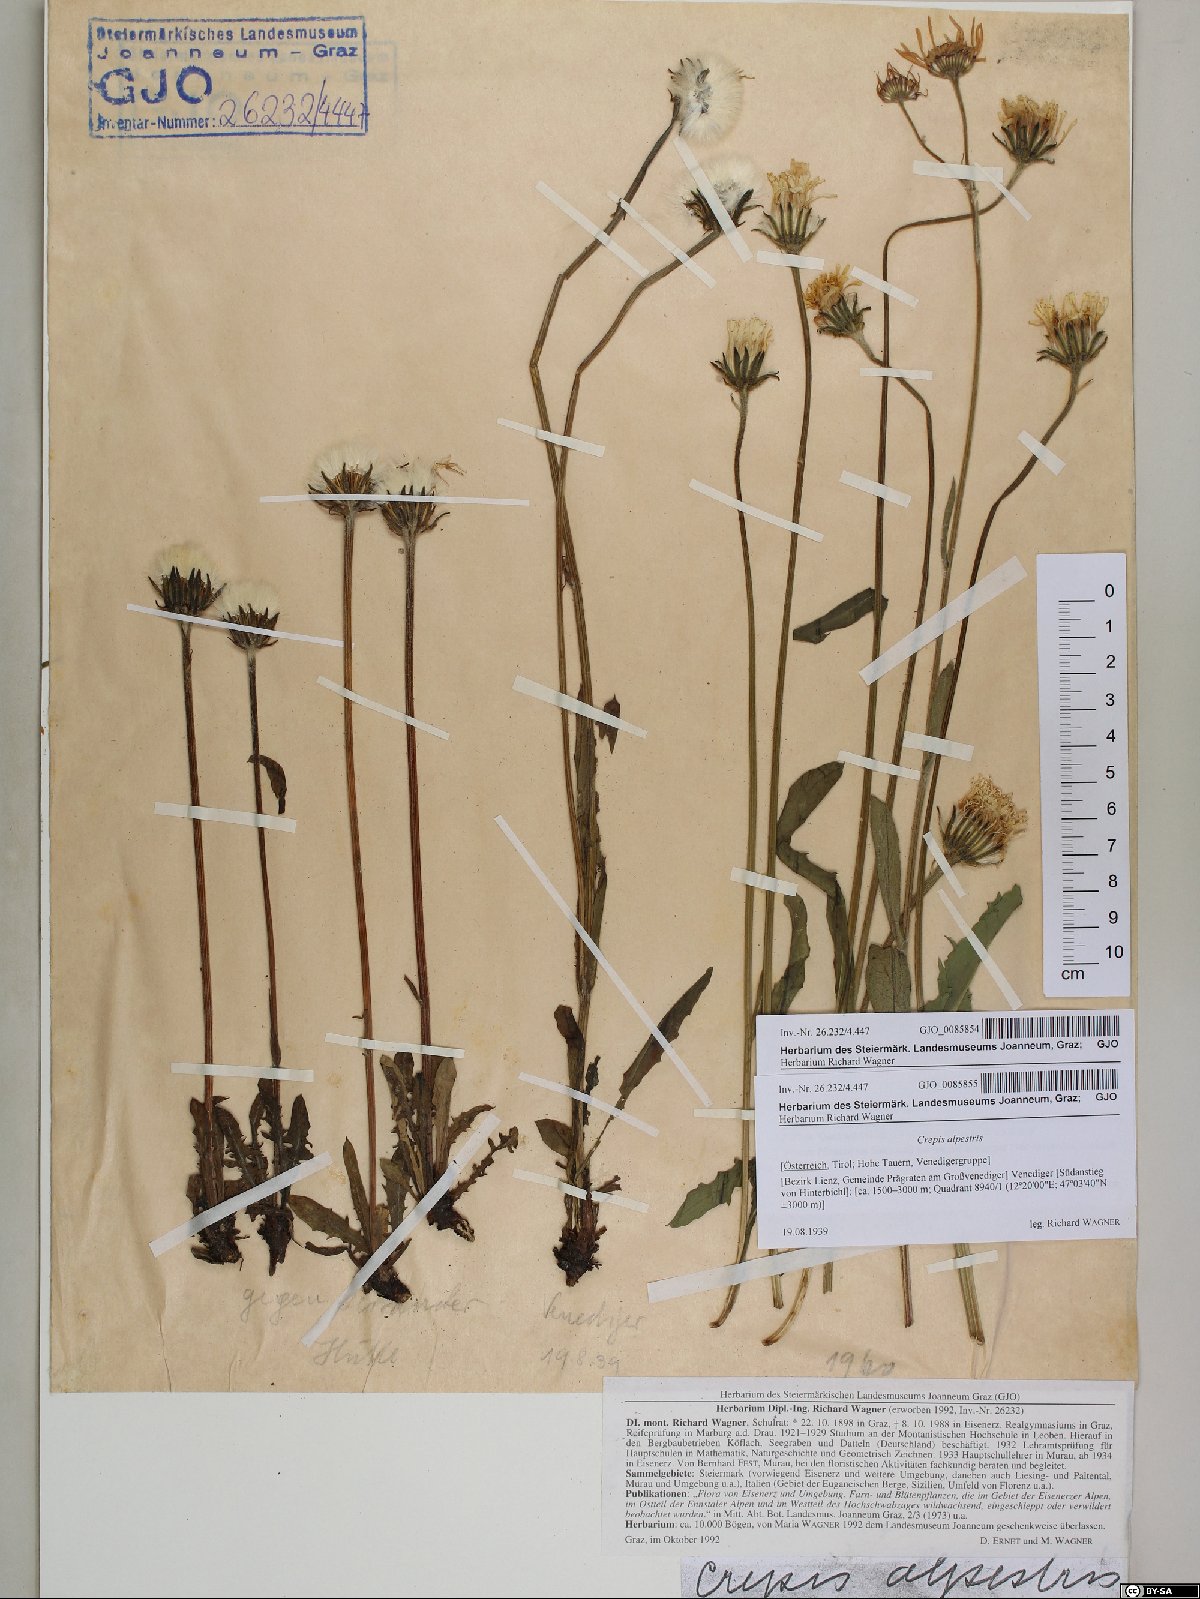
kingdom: Plantae
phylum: Tracheophyta
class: Magnoliopsida
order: Asterales
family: Asteraceae
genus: Crepis
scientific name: Crepis alpestris
